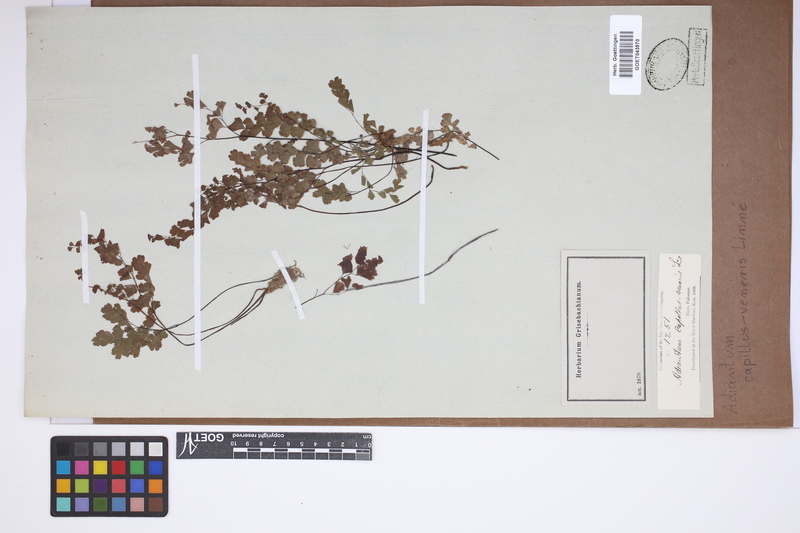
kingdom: Plantae
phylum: Tracheophyta
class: Polypodiopsida
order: Polypodiales
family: Pteridaceae
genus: Adiantum
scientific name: Adiantum capillus-veneris
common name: Maidenhair fern
